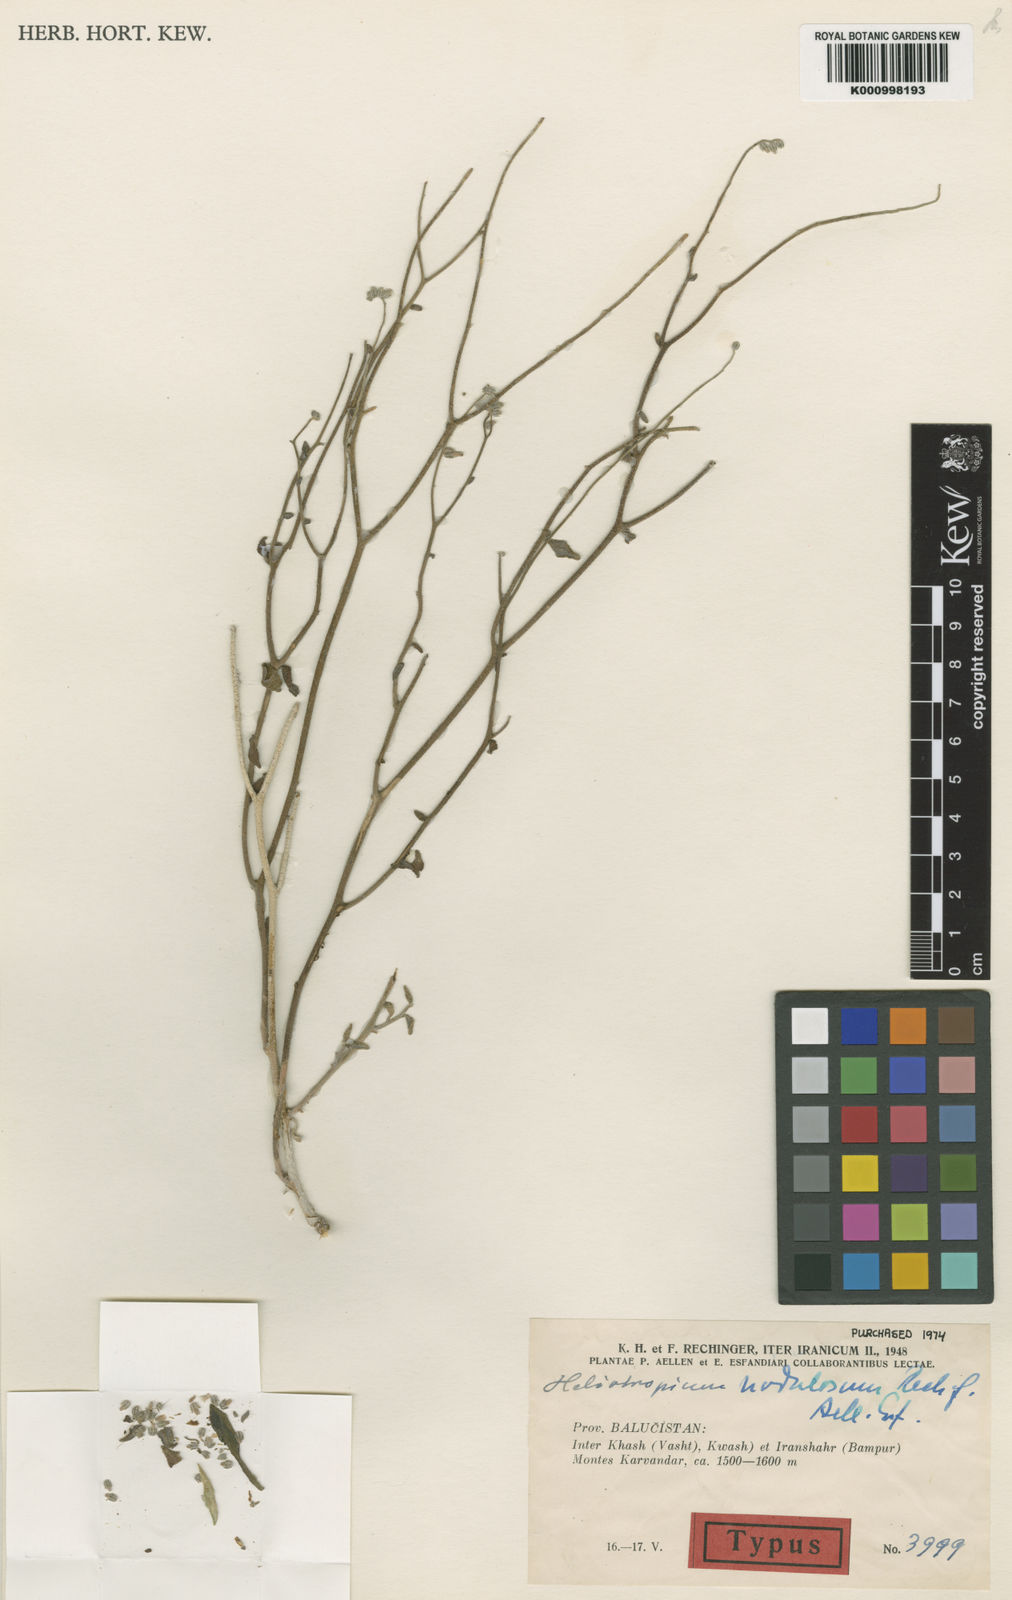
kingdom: Plantae
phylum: Tracheophyta
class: Magnoliopsida
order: Boraginales
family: Heliotropiaceae
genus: Heliotropium
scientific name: Heliotropium nodulosum
